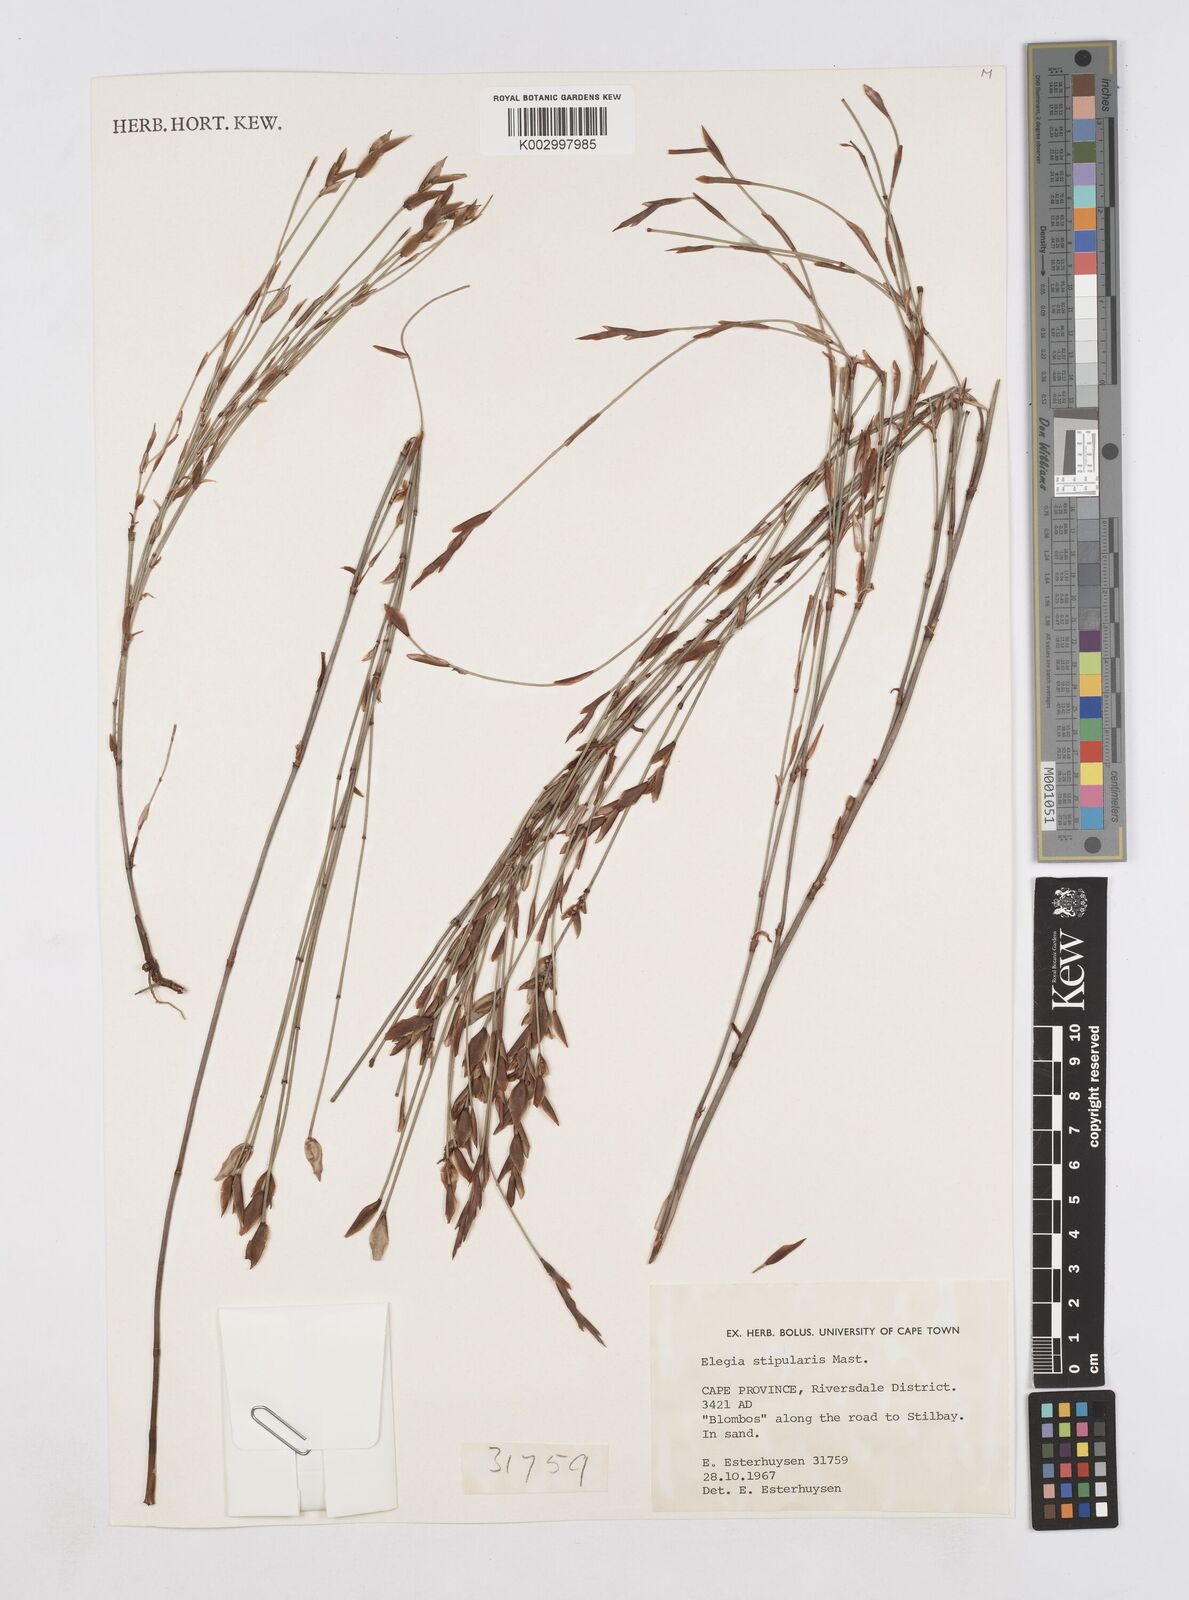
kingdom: Plantae
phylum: Tracheophyta
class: Liliopsida
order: Poales
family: Restionaceae
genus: Elegia
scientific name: Elegia stipularis
